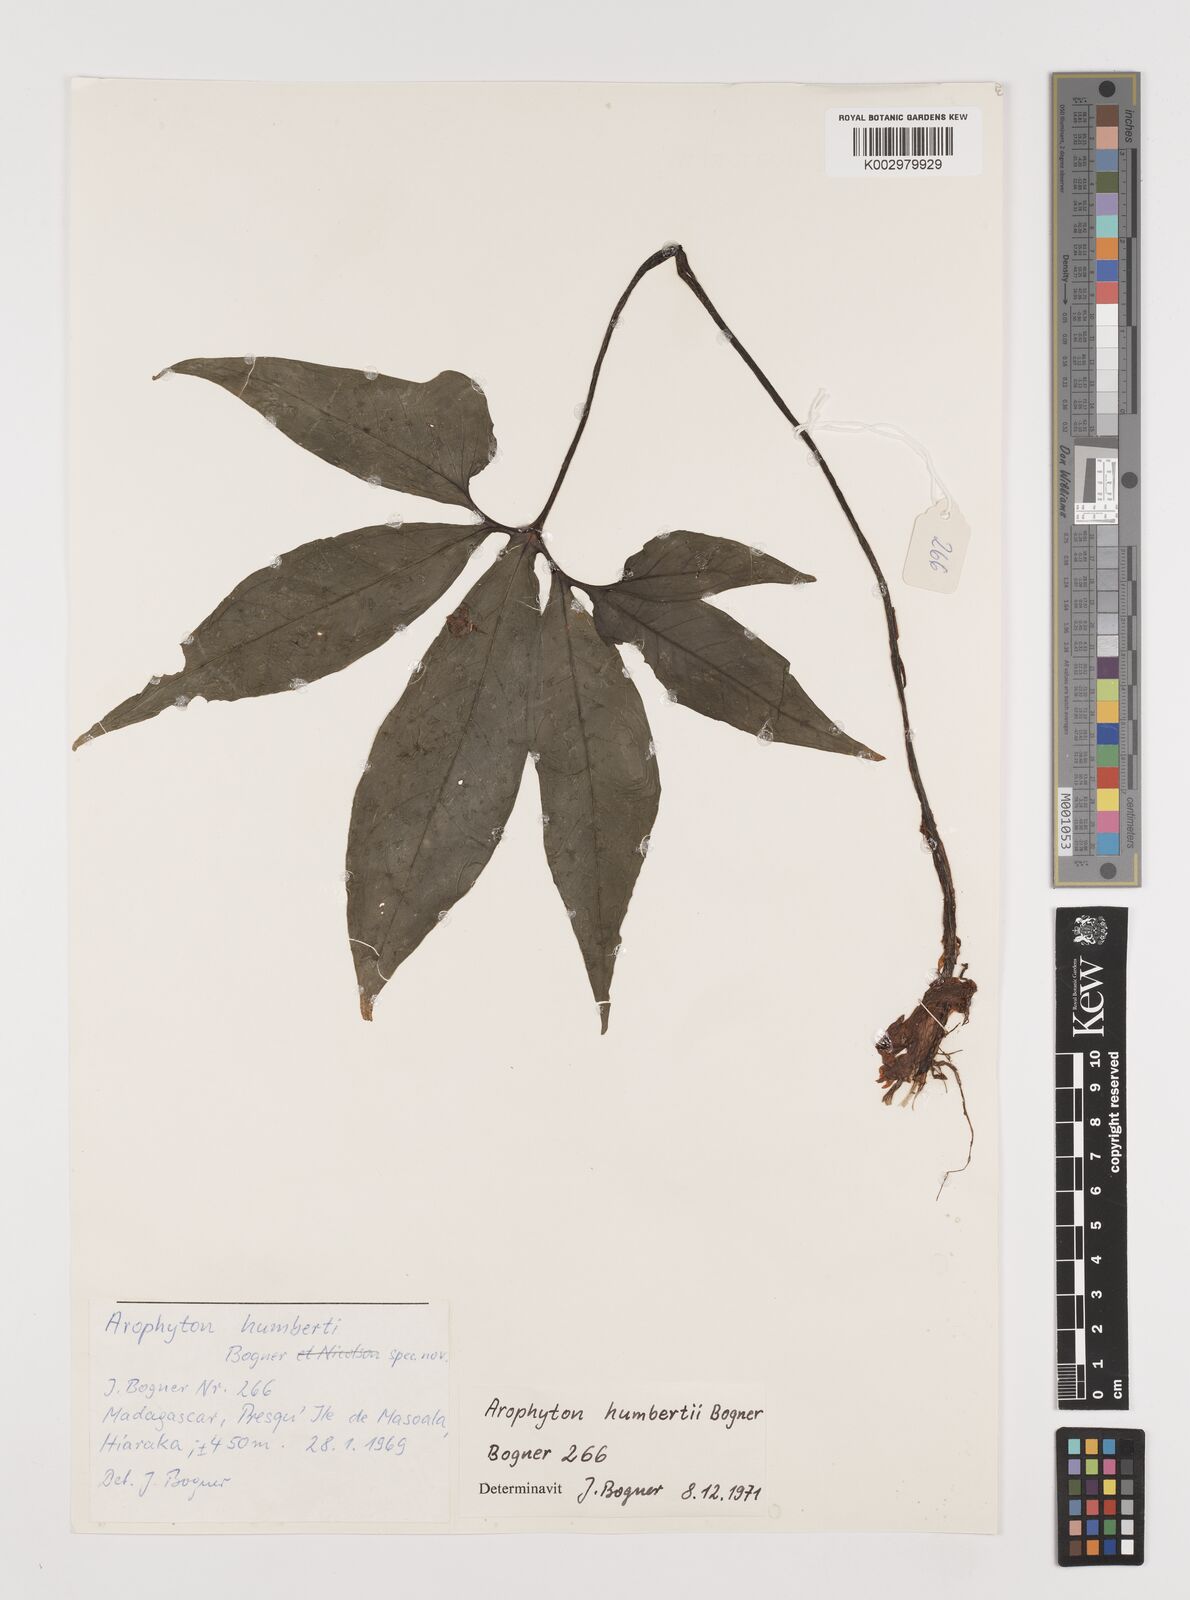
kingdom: Plantae
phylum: Tracheophyta
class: Liliopsida
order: Alismatales
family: Araceae
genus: Arophyton
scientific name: Arophyton humbertii
